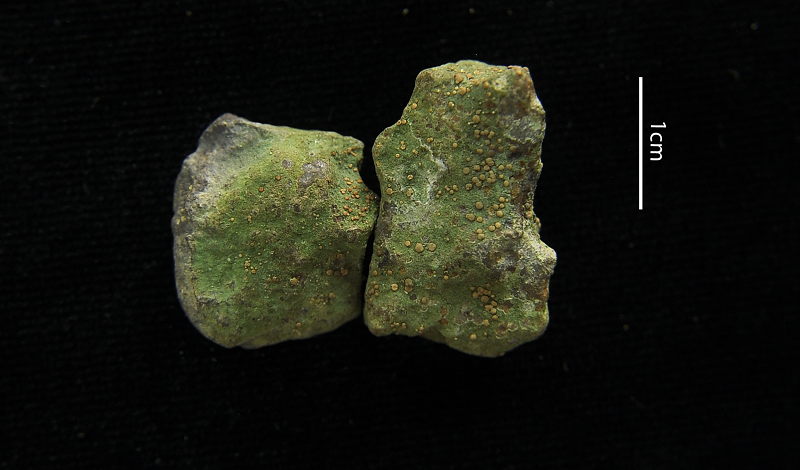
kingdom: Fungi
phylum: Ascomycota
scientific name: Ascomycota
